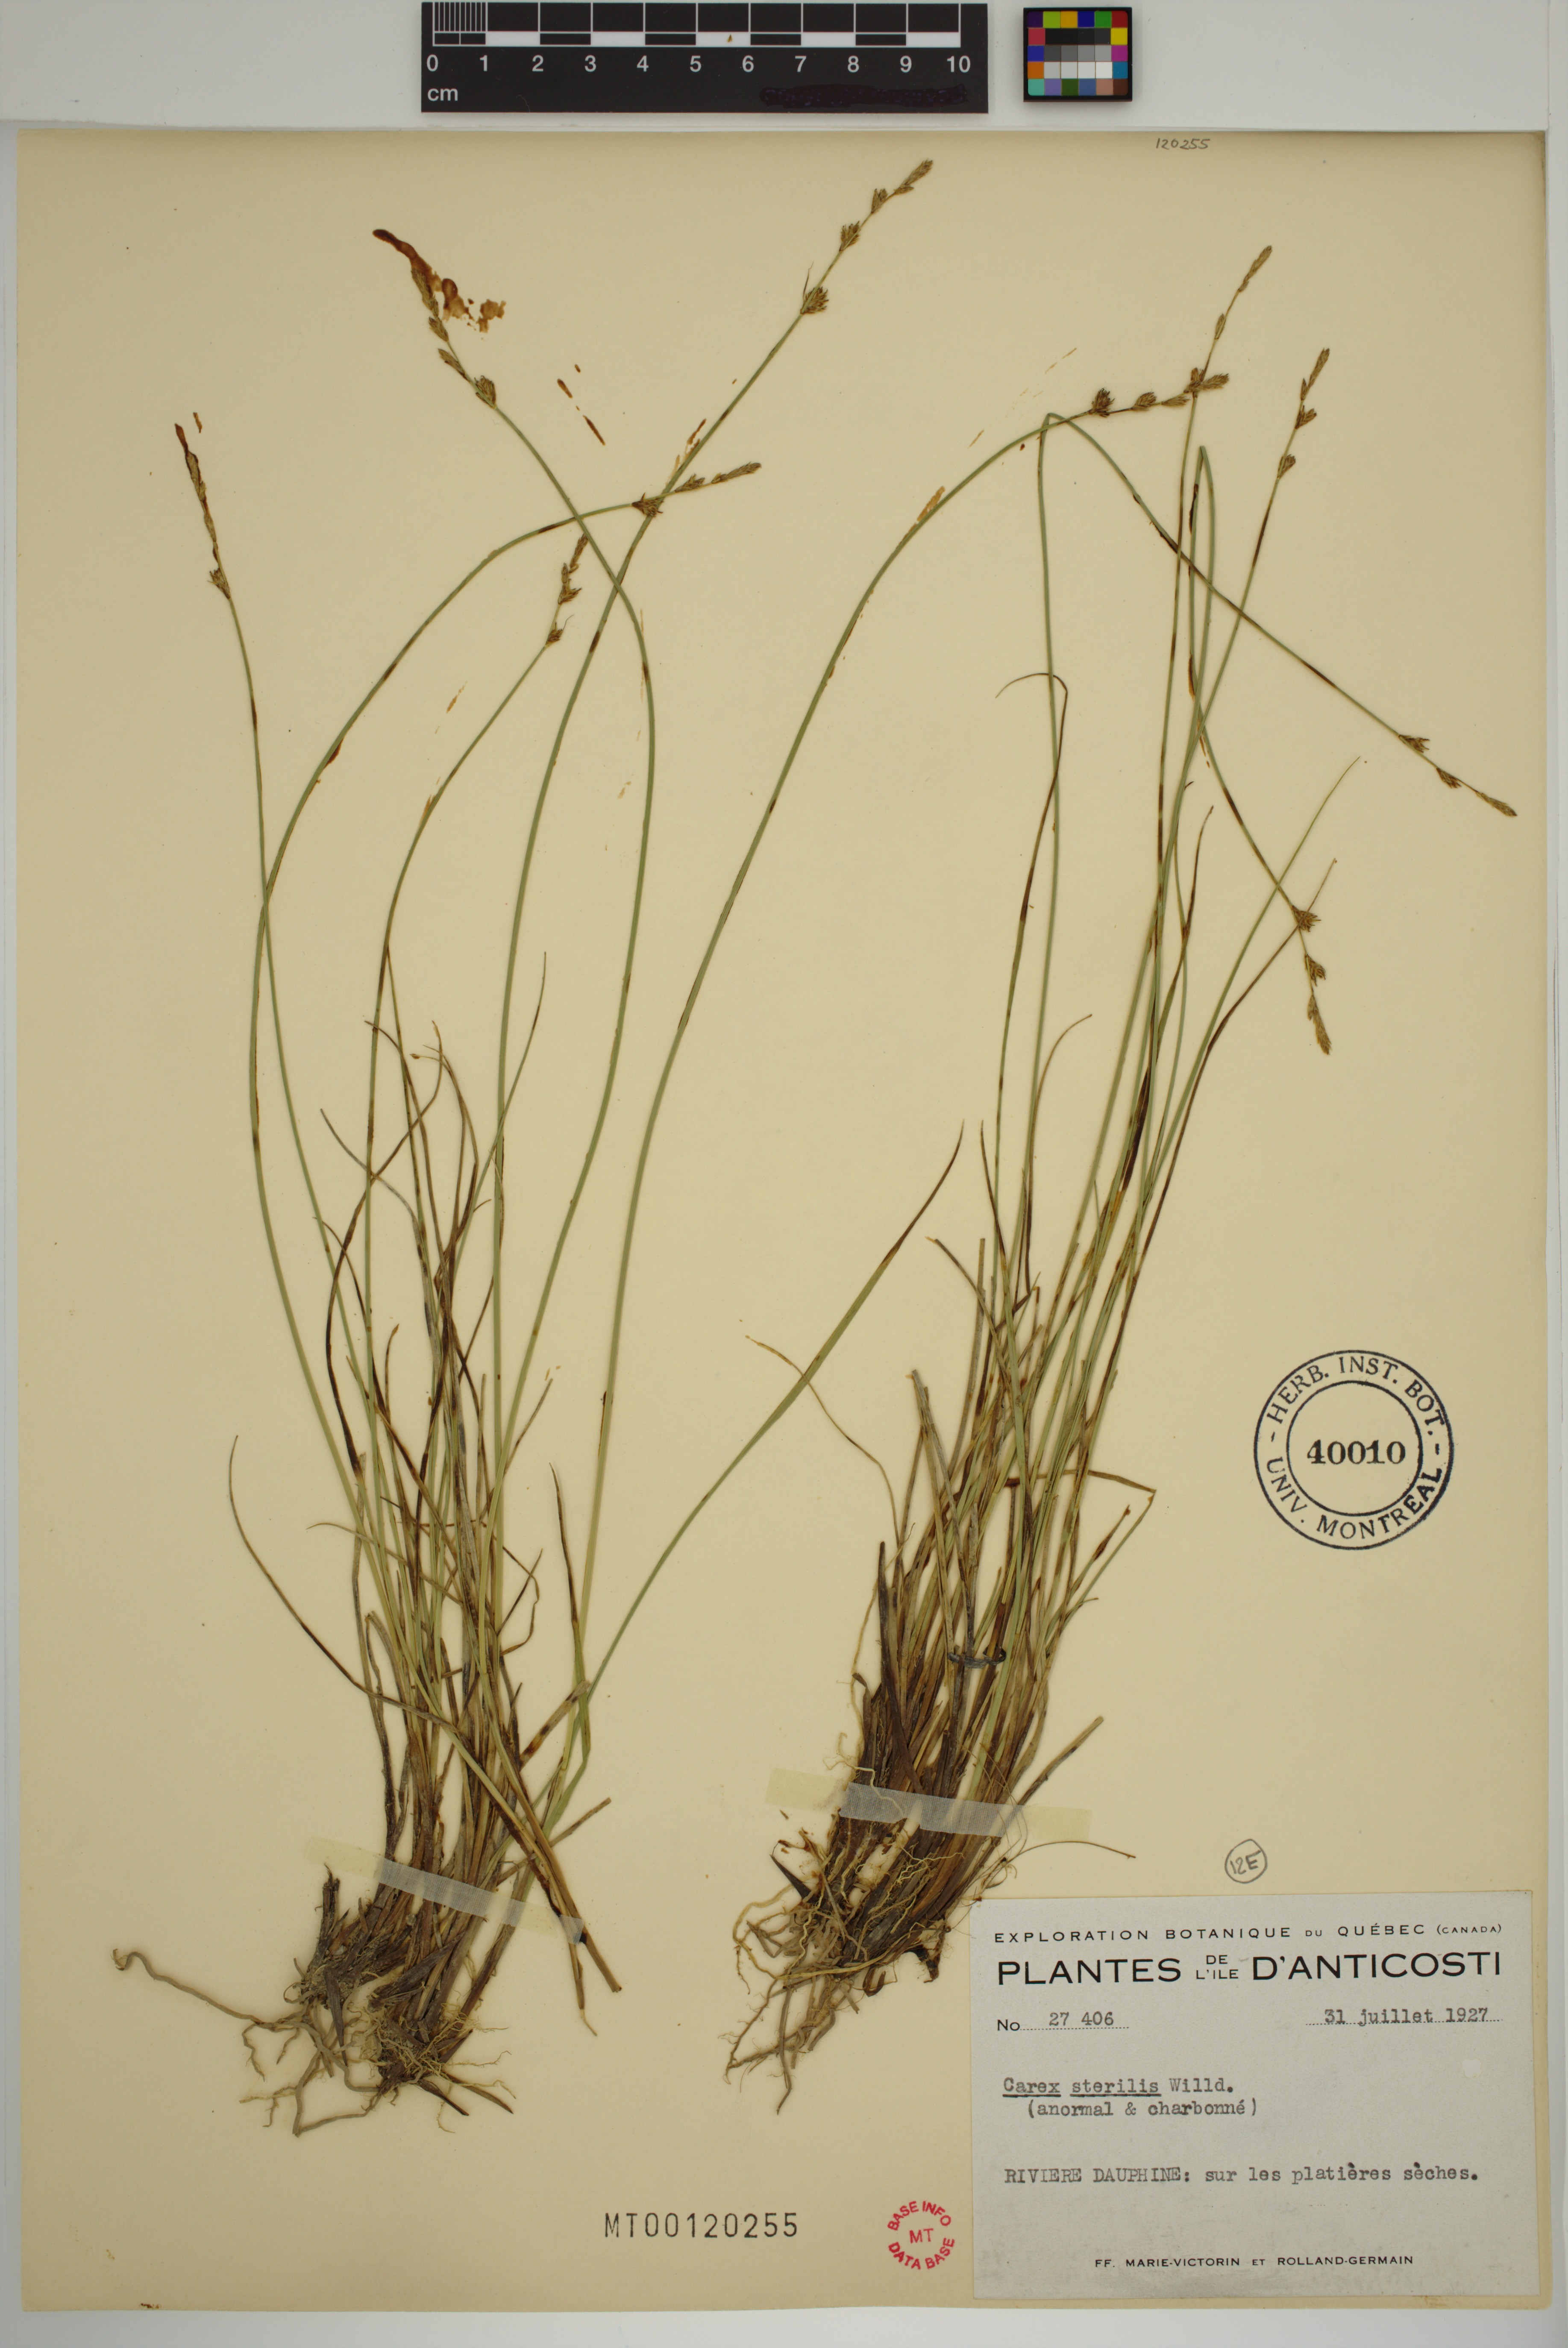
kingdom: Plantae
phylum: Tracheophyta
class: Liliopsida
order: Poales
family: Cyperaceae
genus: Carex
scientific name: Carex sterilis
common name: Dioecious sedge
